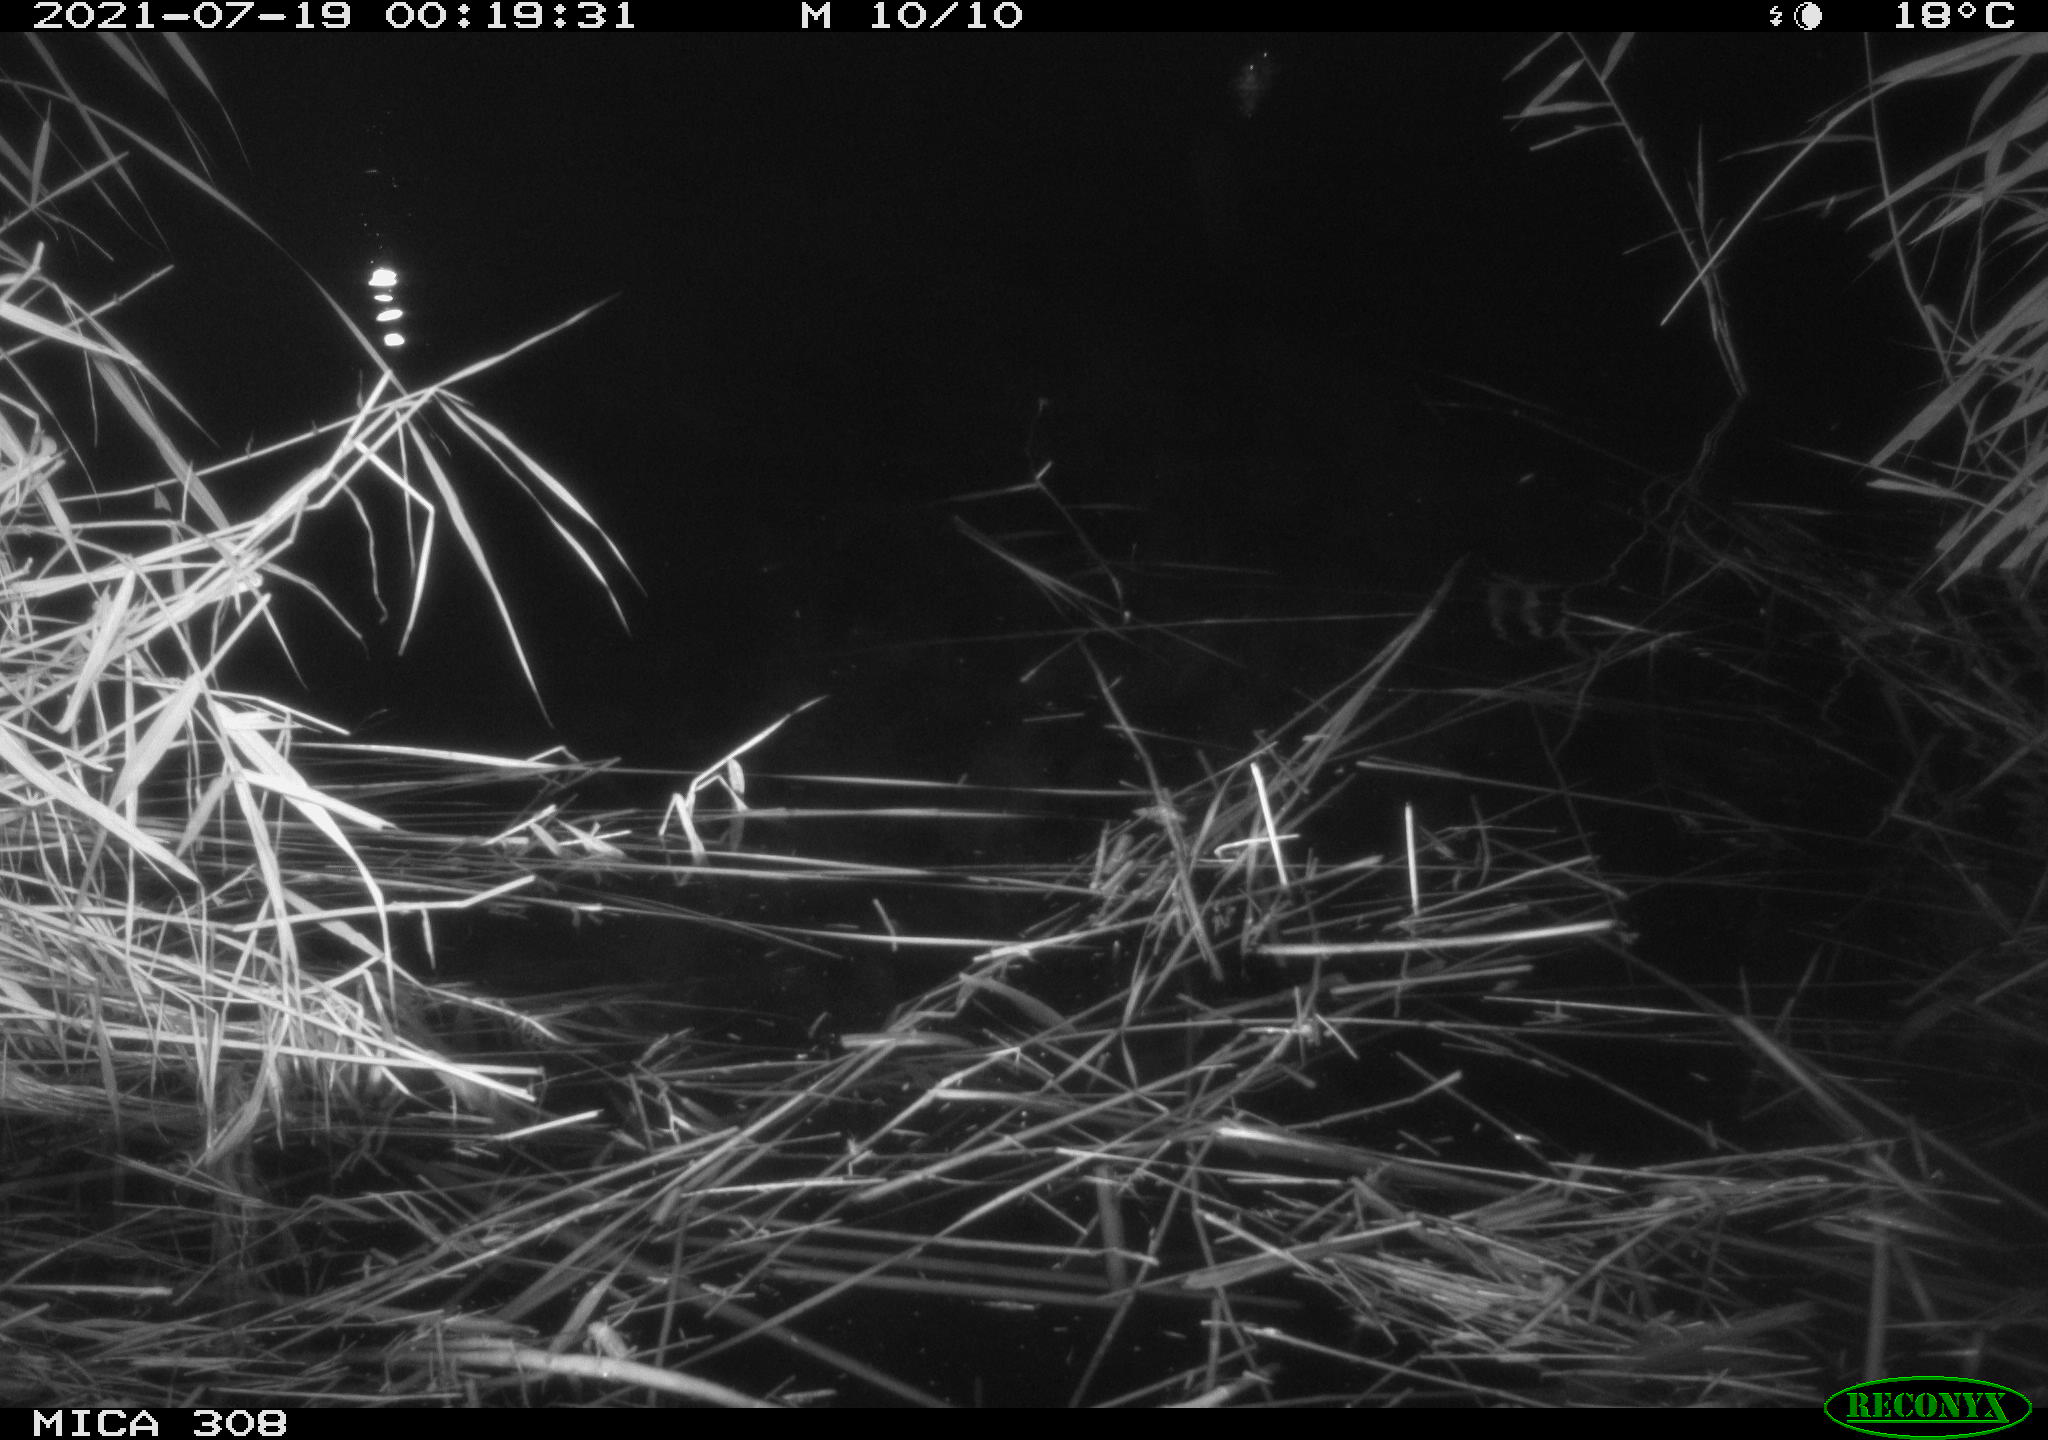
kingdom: Animalia
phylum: Chordata
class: Aves
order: Anseriformes
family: Anatidae
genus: Anas
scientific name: Anas platyrhynchos
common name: Mallard
